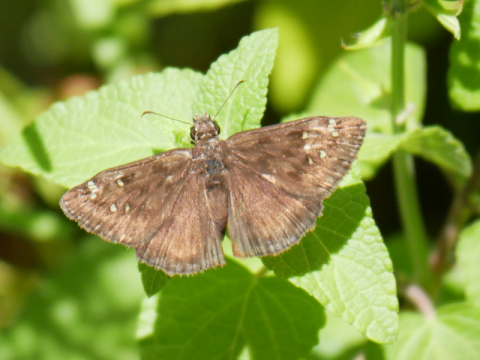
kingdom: Animalia
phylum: Arthropoda
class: Insecta
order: Lepidoptera
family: Hesperiidae
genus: Gesta
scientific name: Gesta
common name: Horace's Duskywing
